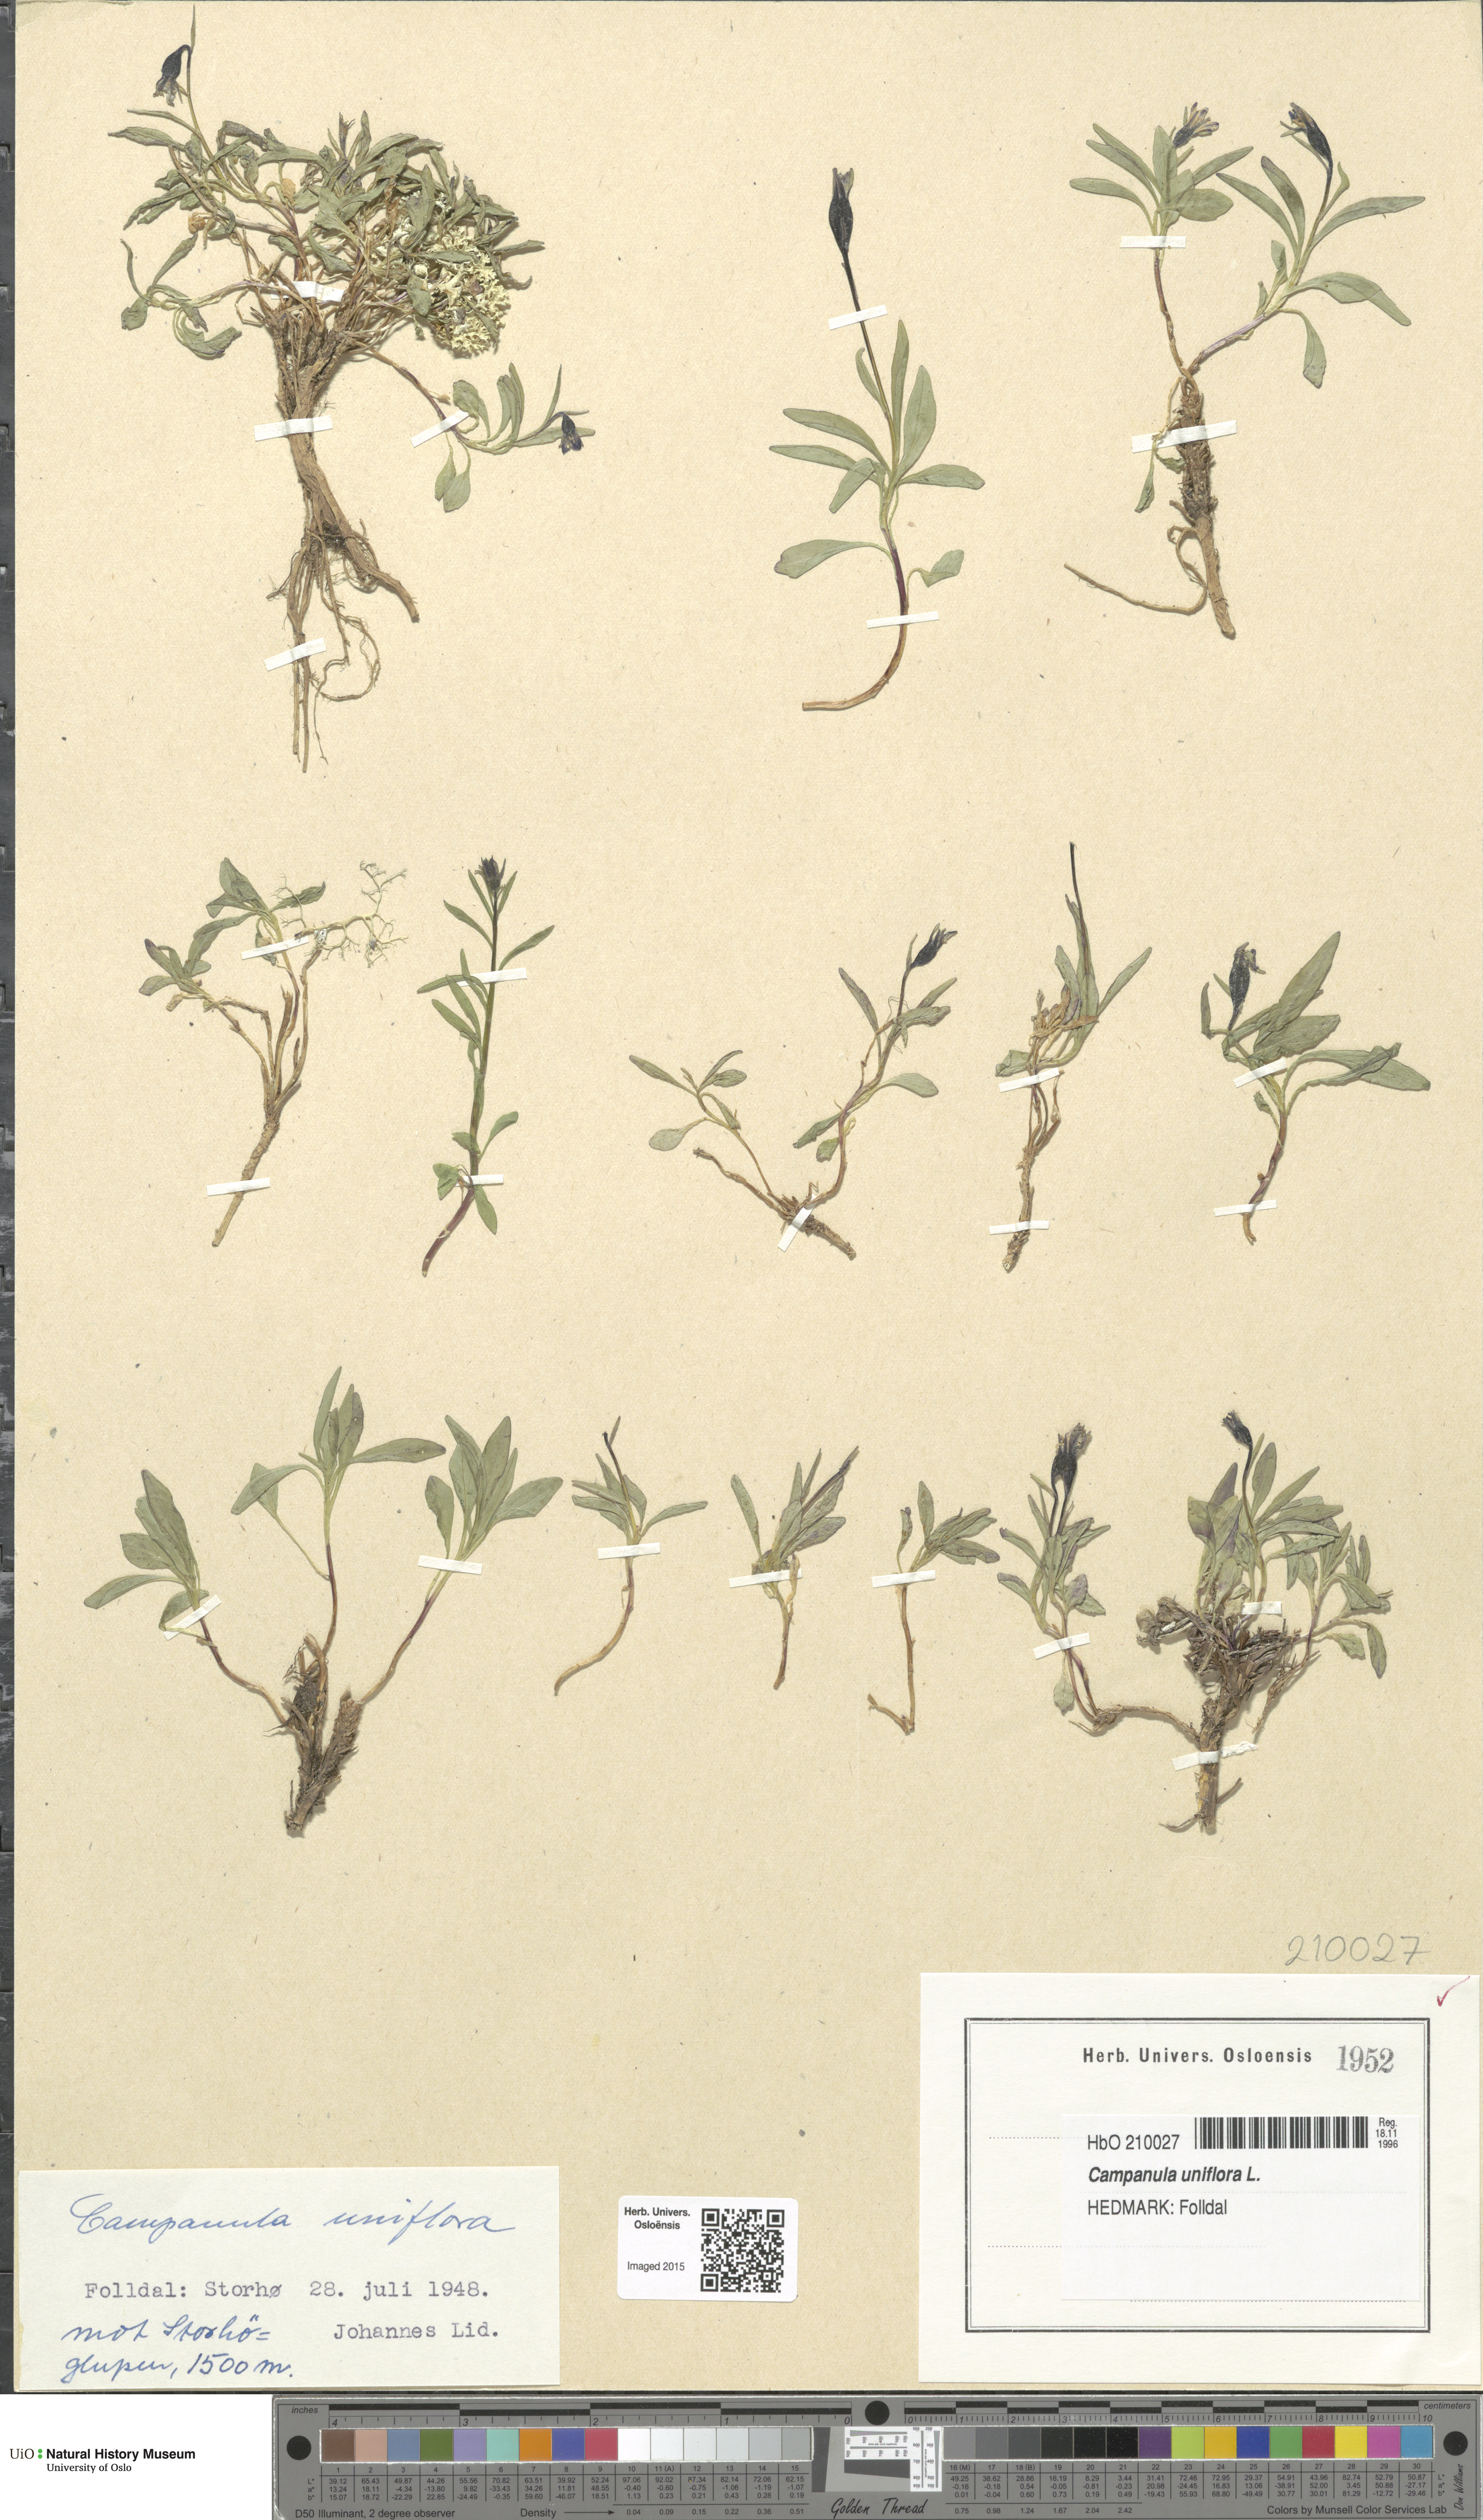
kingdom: Plantae
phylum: Tracheophyta
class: Magnoliopsida
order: Asterales
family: Campanulaceae
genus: Melanocalyx
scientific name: Melanocalyx uniflora
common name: Alpine harebell
